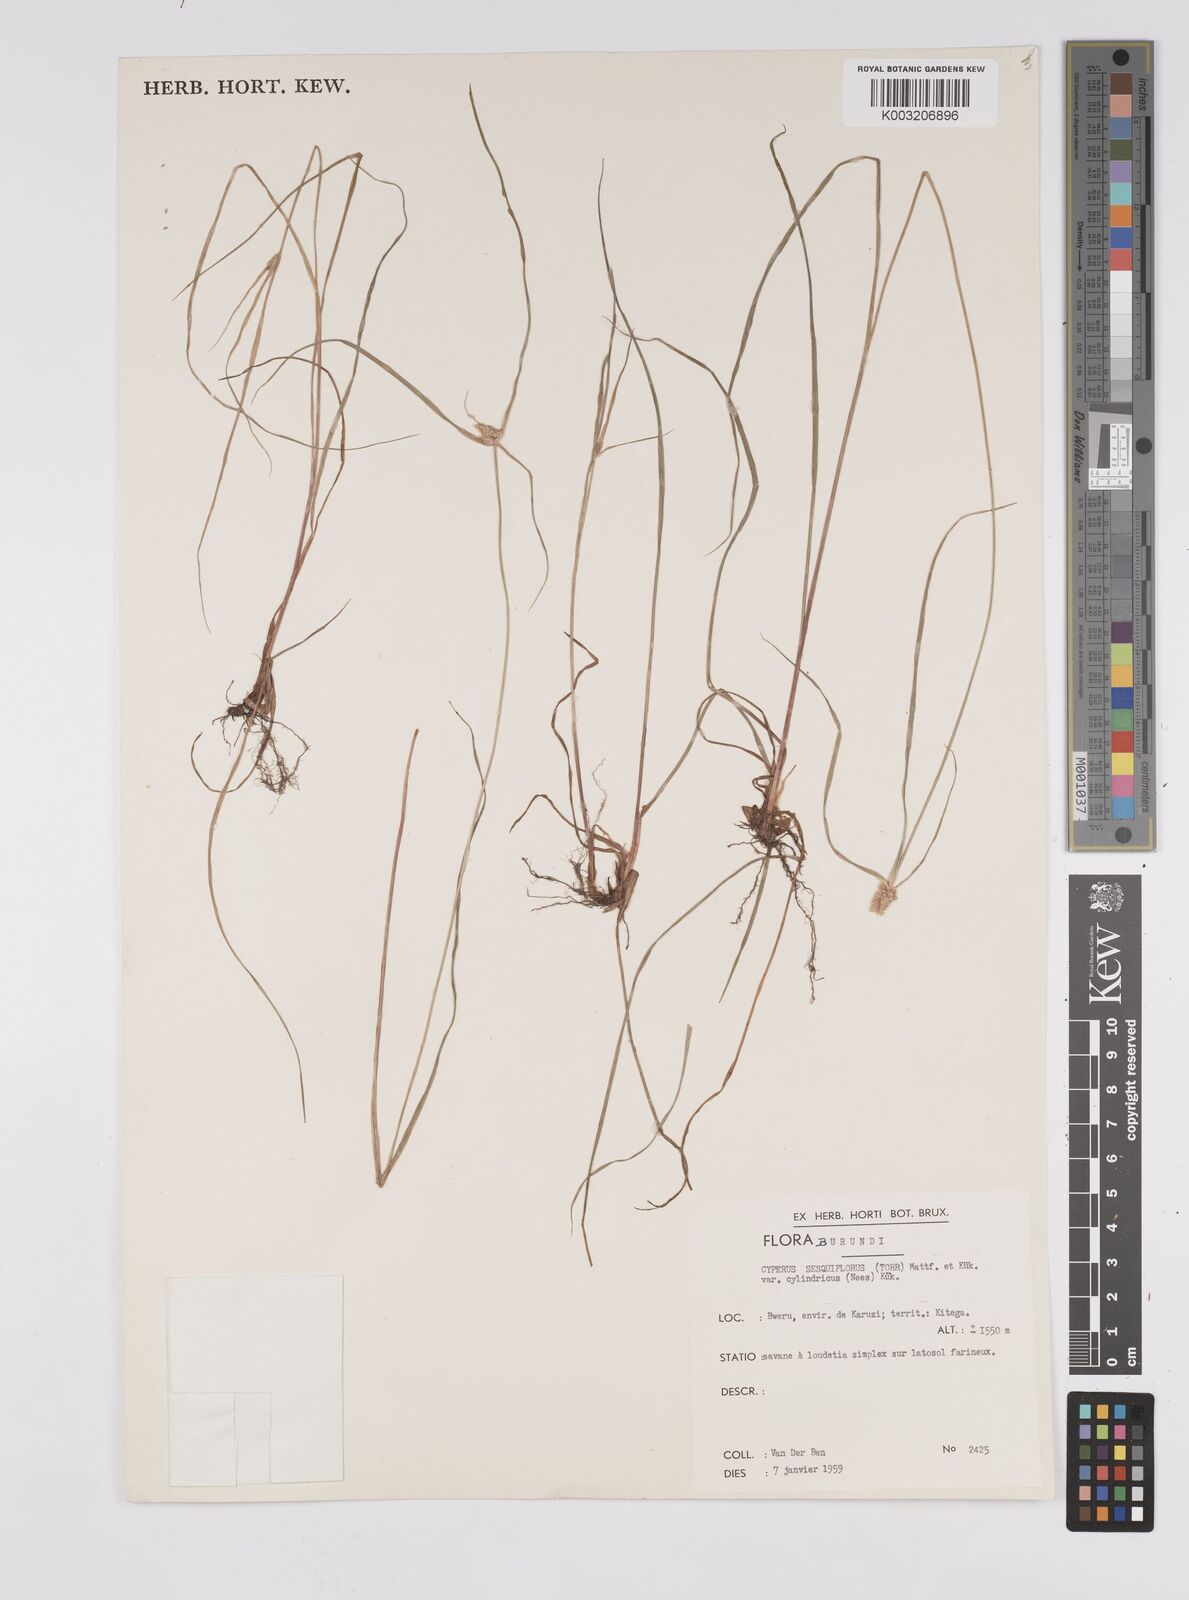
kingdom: Plantae
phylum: Tracheophyta
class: Liliopsida
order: Poales
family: Cyperaceae
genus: Cyperus
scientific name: Cyperus odoratus
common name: Fragrant flatsedge
